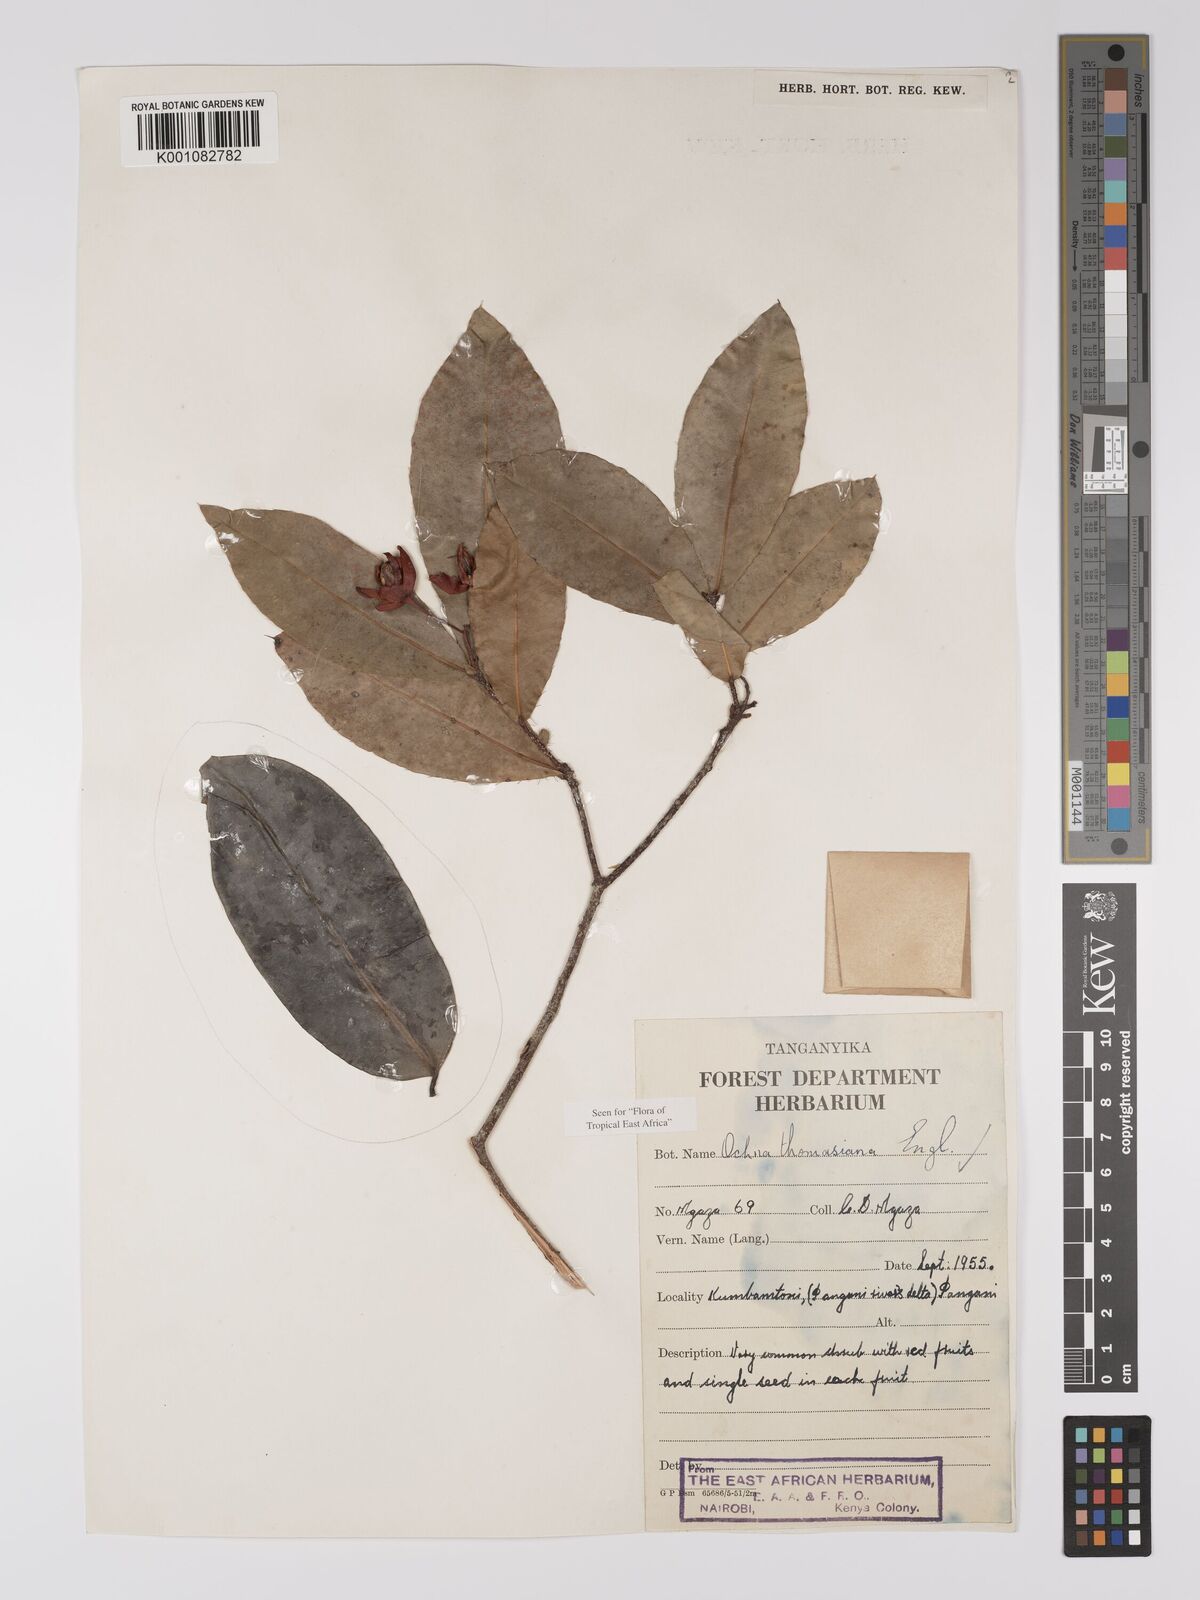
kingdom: Plantae
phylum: Tracheophyta
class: Magnoliopsida
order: Malpighiales
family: Ochnaceae
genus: Ochna
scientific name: Ochna thomasiana
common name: Thomas' bird's-eye bush
